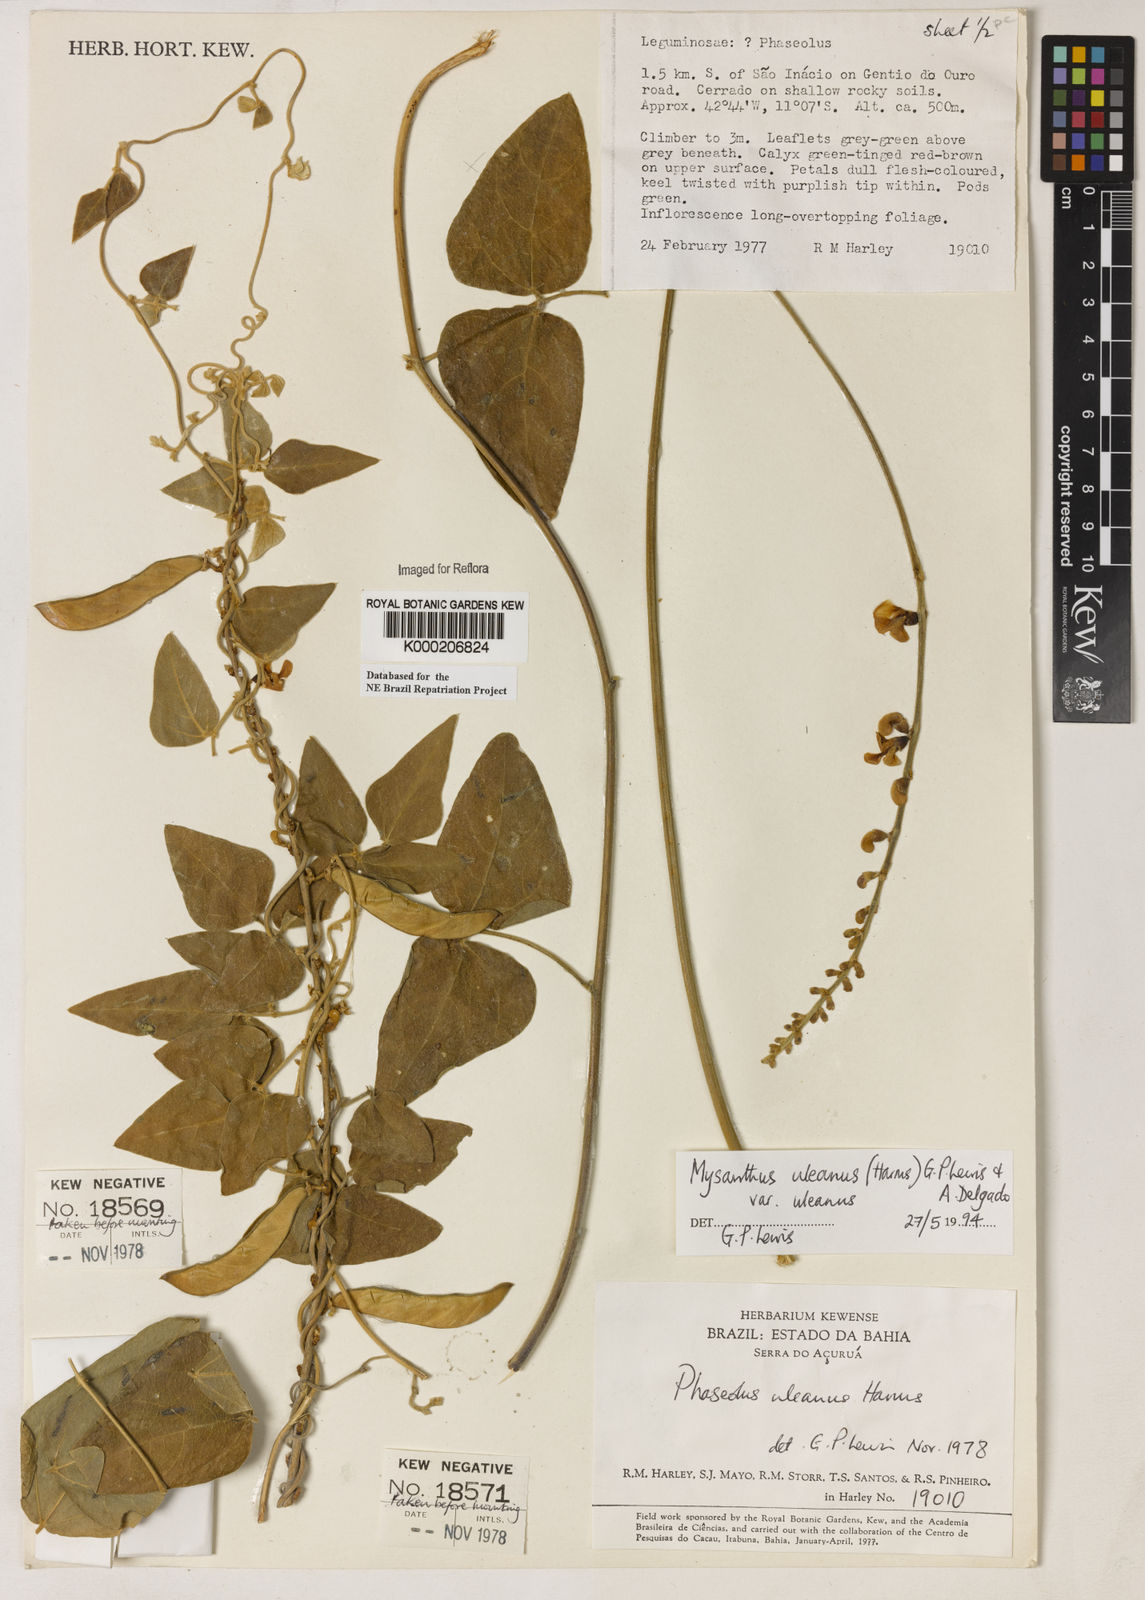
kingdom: Plantae
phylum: Tracheophyta
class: Magnoliopsida
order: Fabales
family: Fabaceae
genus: Mysanthus
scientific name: Mysanthus uleanus
